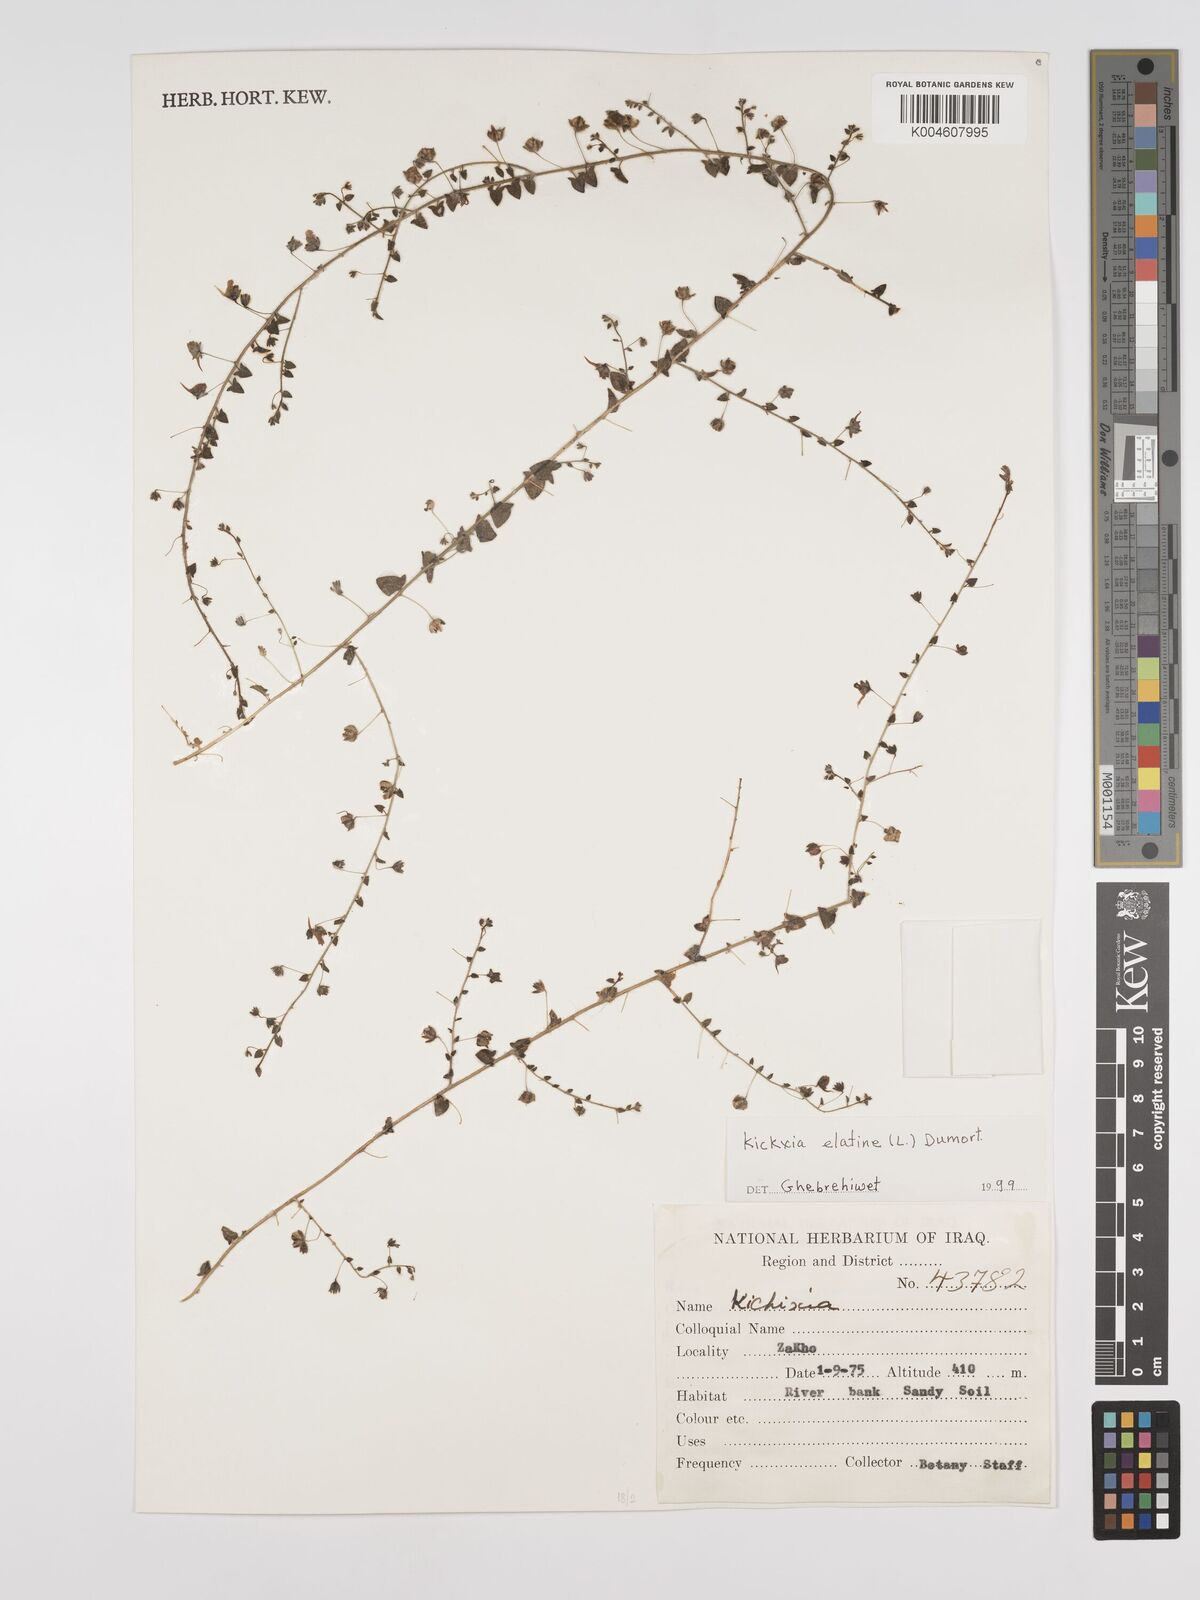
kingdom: Plantae
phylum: Tracheophyta
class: Magnoliopsida
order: Lamiales
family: Plantaginaceae
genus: Kickxia
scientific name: Kickxia elatine
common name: Sharp-leaved fluellen
